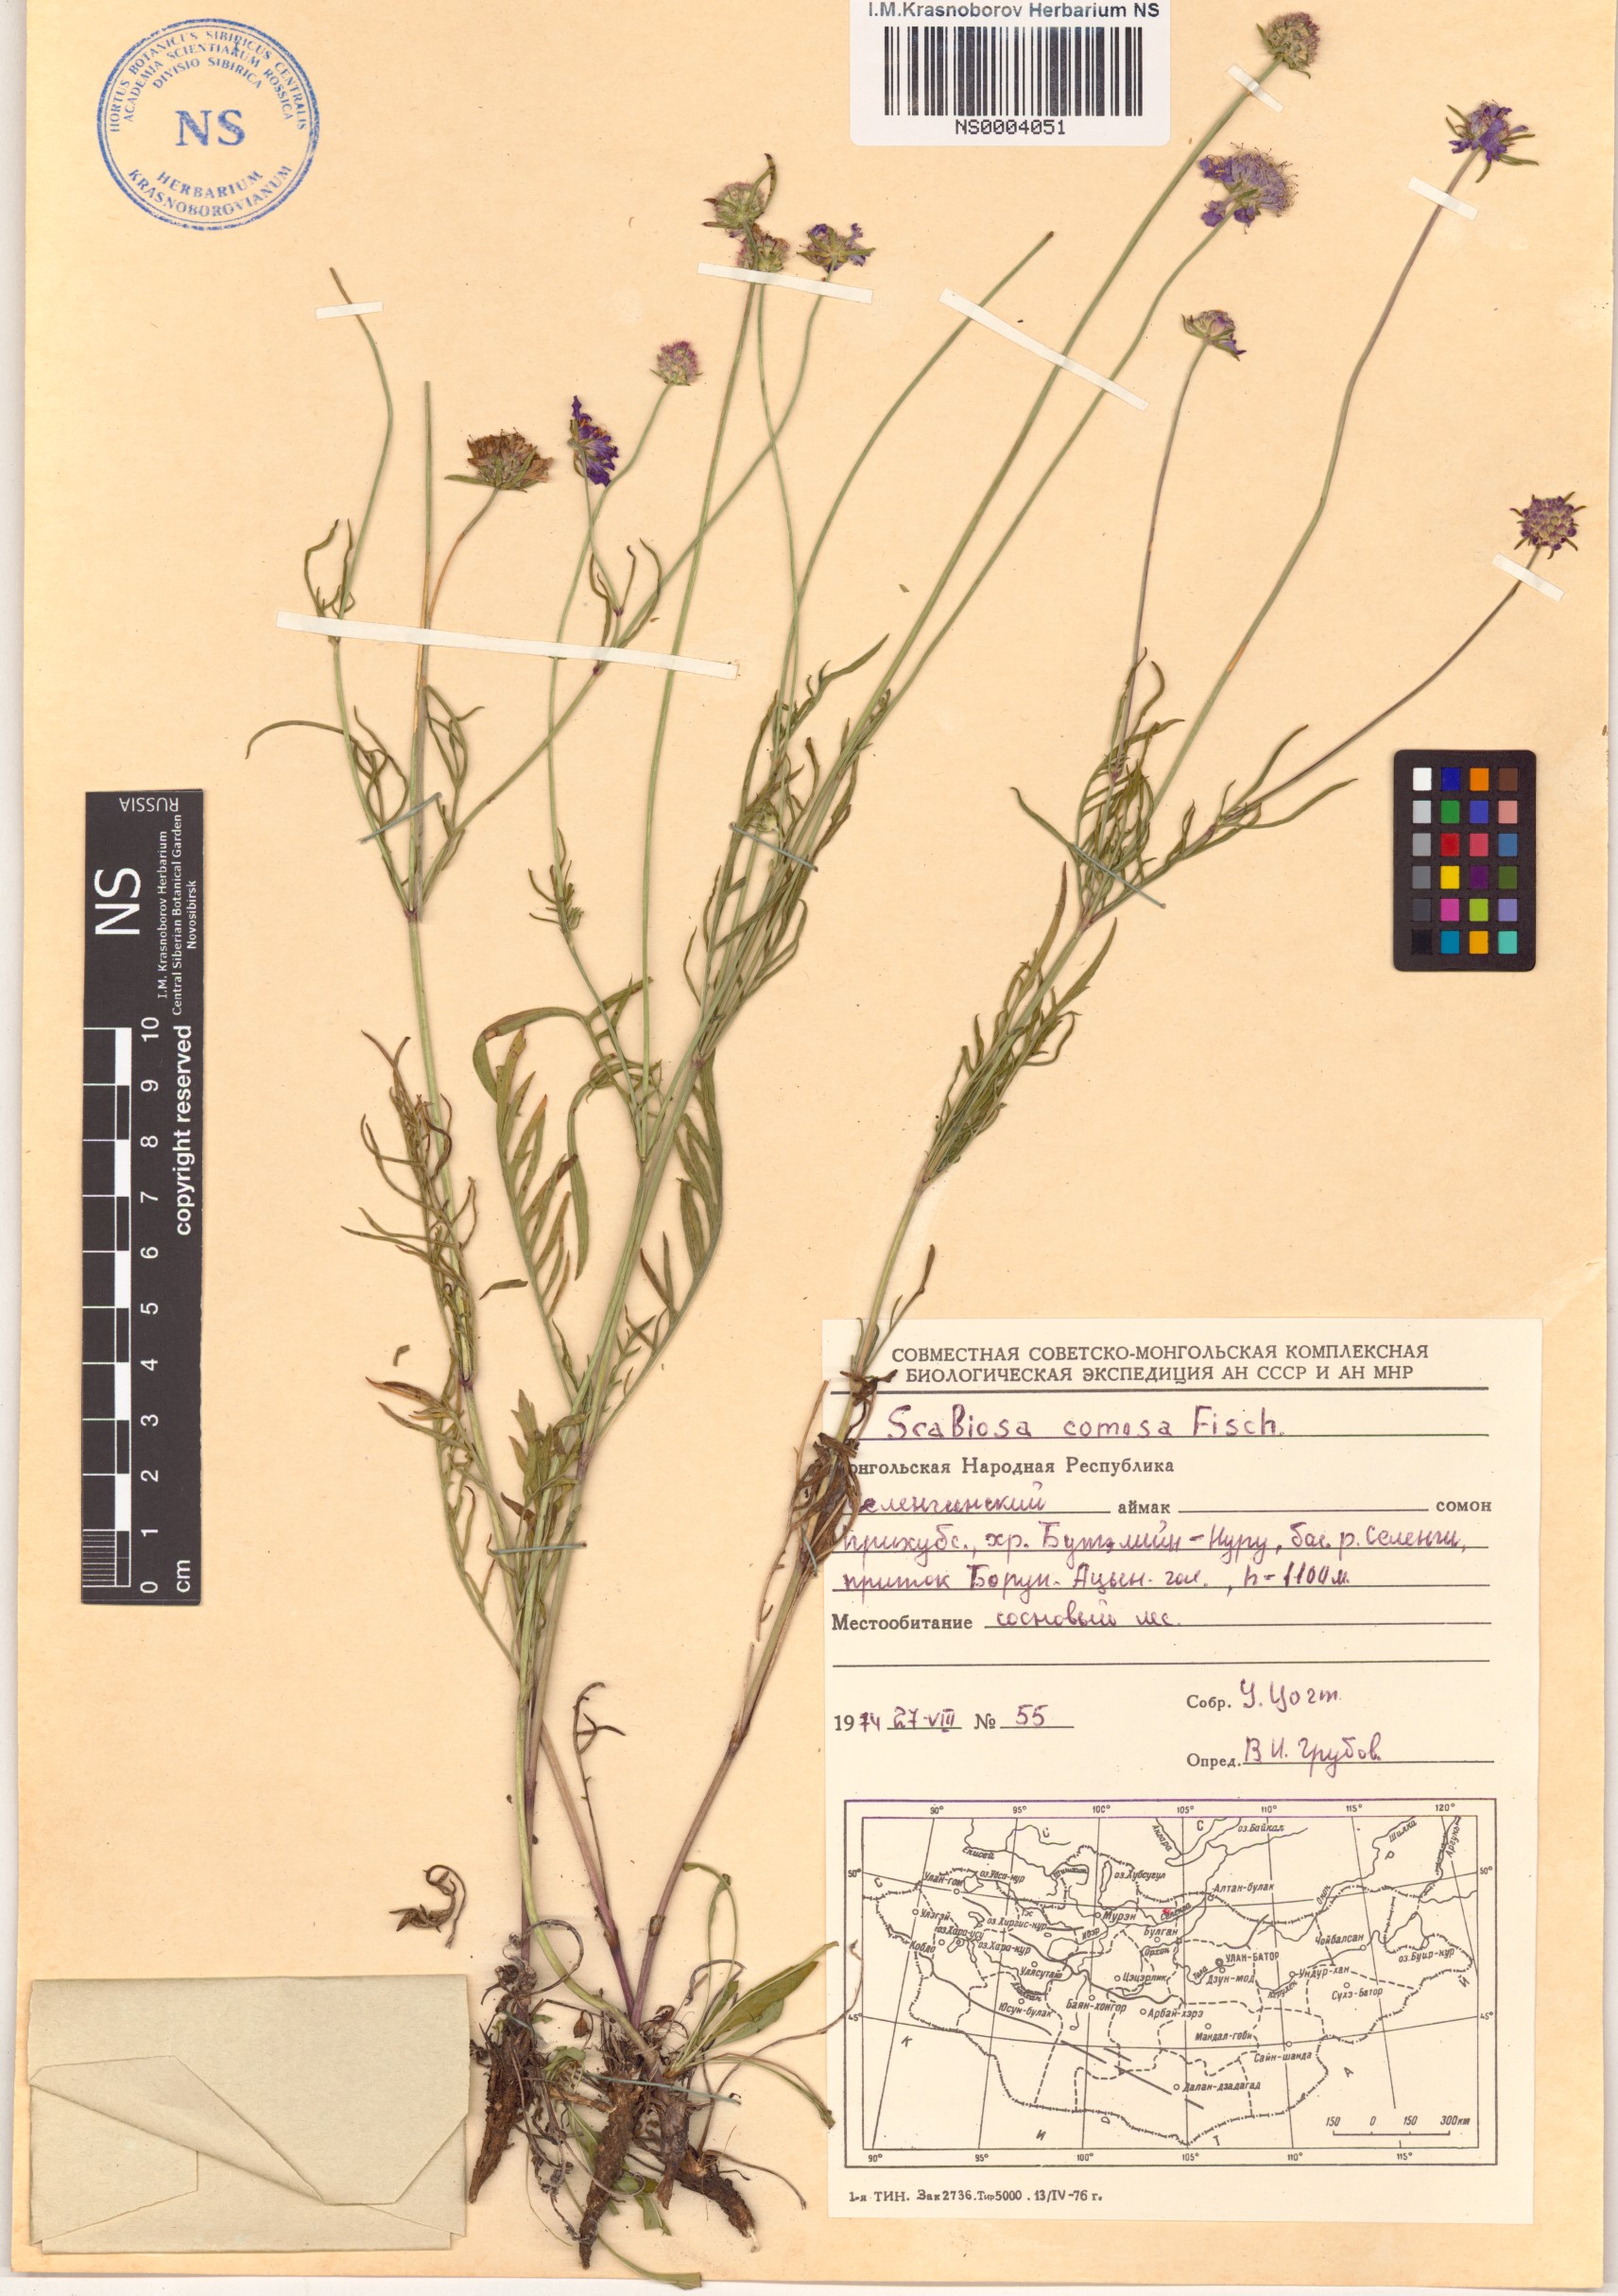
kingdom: Plantae
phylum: Tracheophyta
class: Magnoliopsida
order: Dipsacales
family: Caprifoliaceae
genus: Scabiosa
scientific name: Scabiosa comosa
